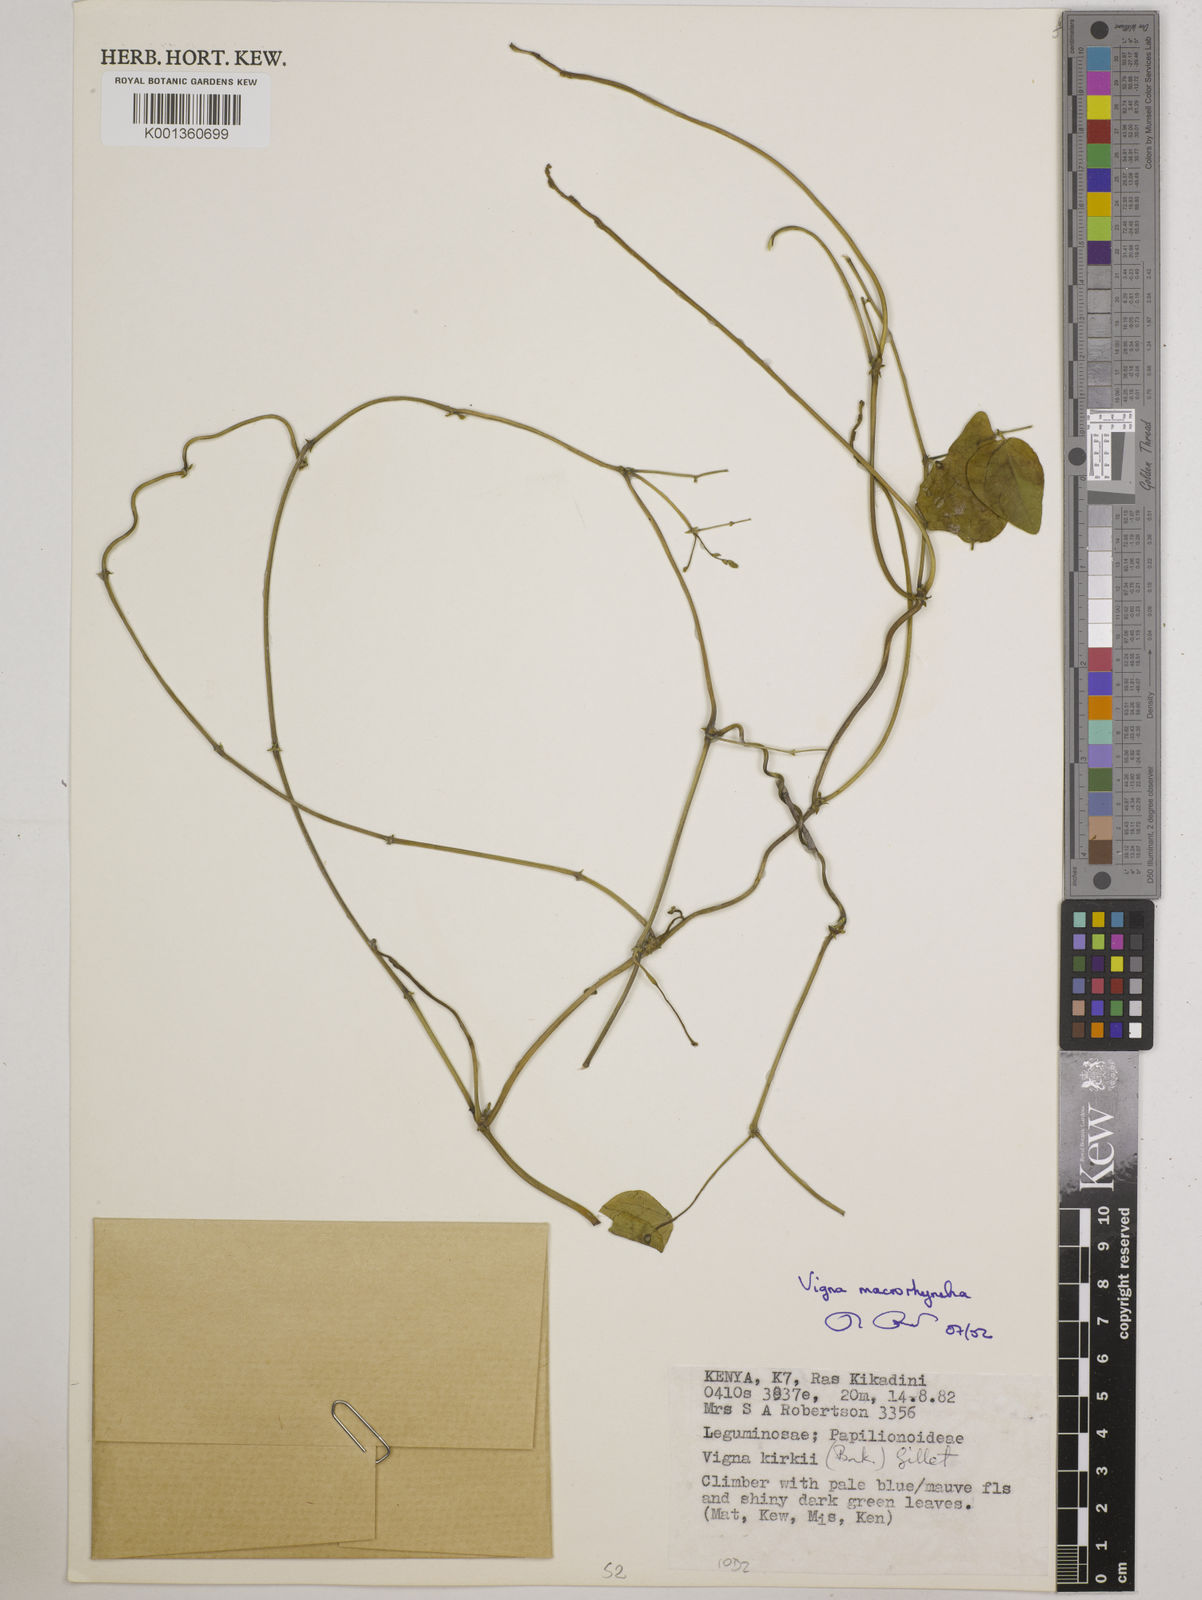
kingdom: Plantae
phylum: Tracheophyta
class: Magnoliopsida
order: Fabales
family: Fabaceae
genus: Wajira
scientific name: Wajira grahamiana
